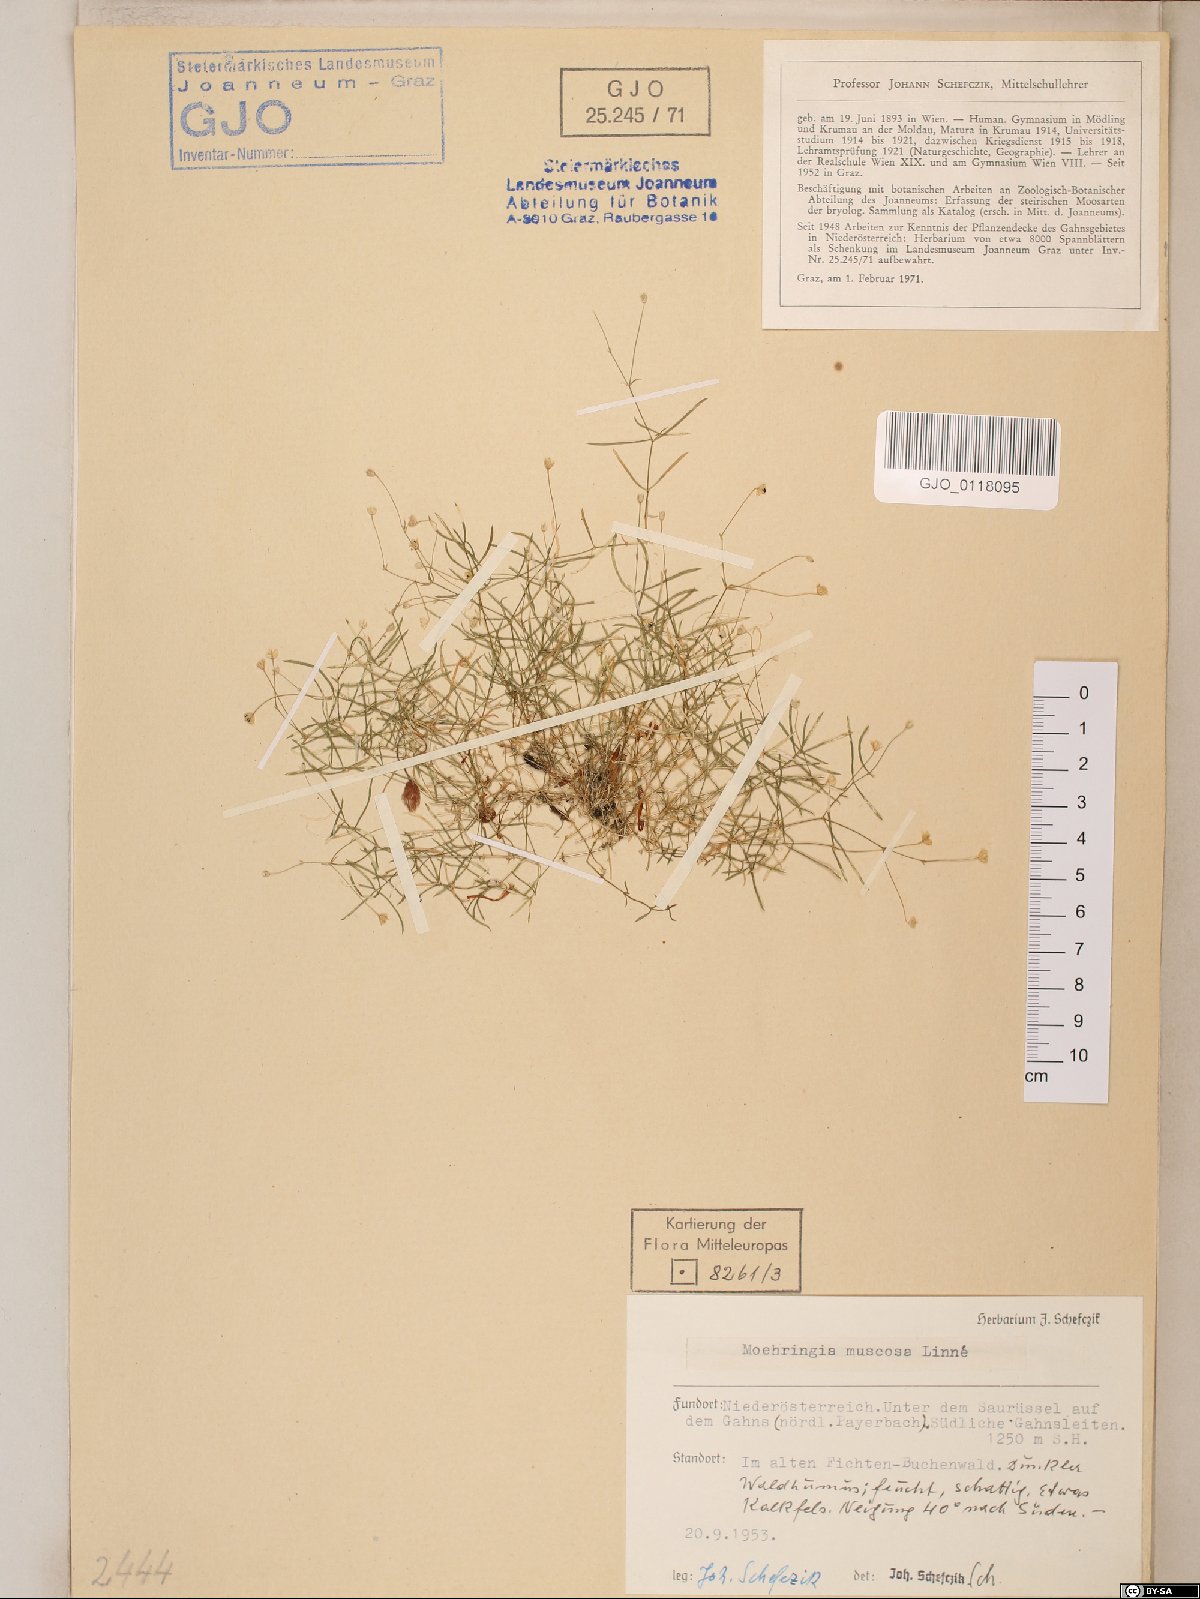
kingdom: Plantae
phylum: Tracheophyta
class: Magnoliopsida
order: Caryophyllales
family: Caryophyllaceae
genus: Moehringia
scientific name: Moehringia muscosa
